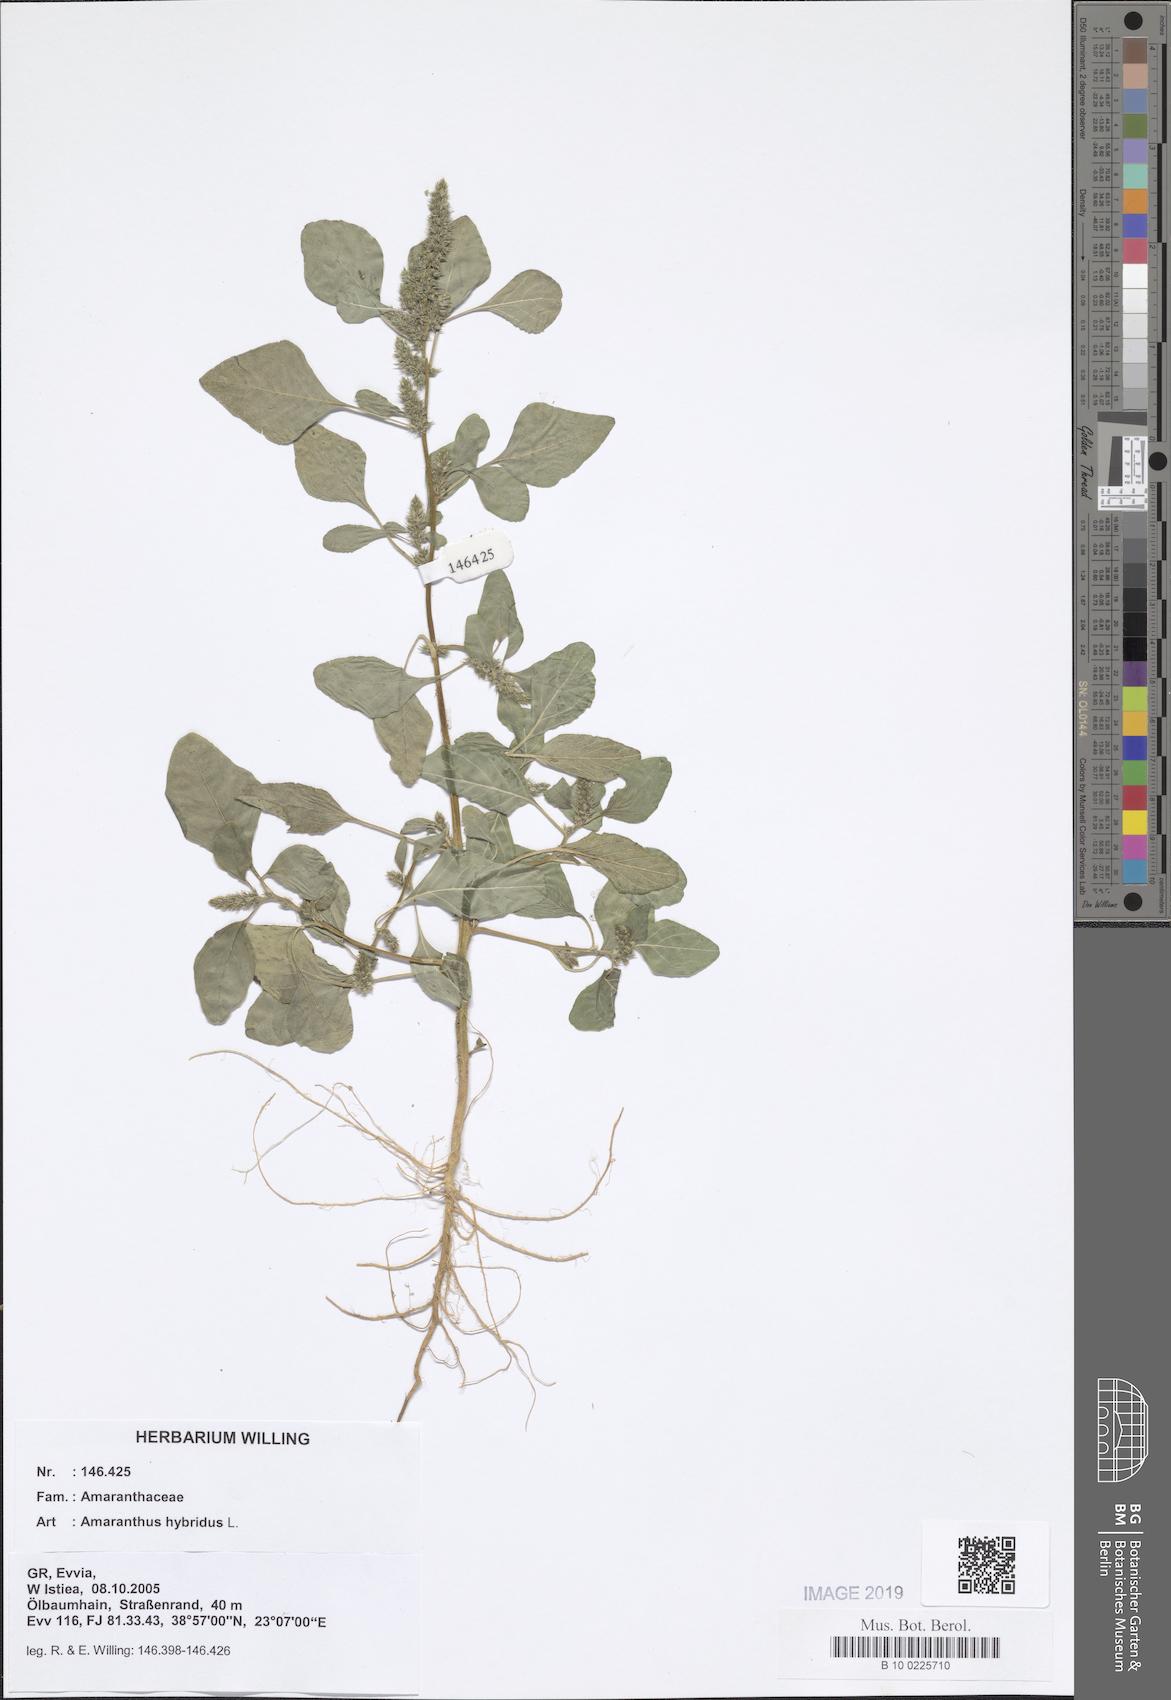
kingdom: Plantae
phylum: Tracheophyta
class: Magnoliopsida
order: Caryophyllales
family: Amaranthaceae
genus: Amaranthus
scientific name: Amaranthus hybridus
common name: Green amaranth
